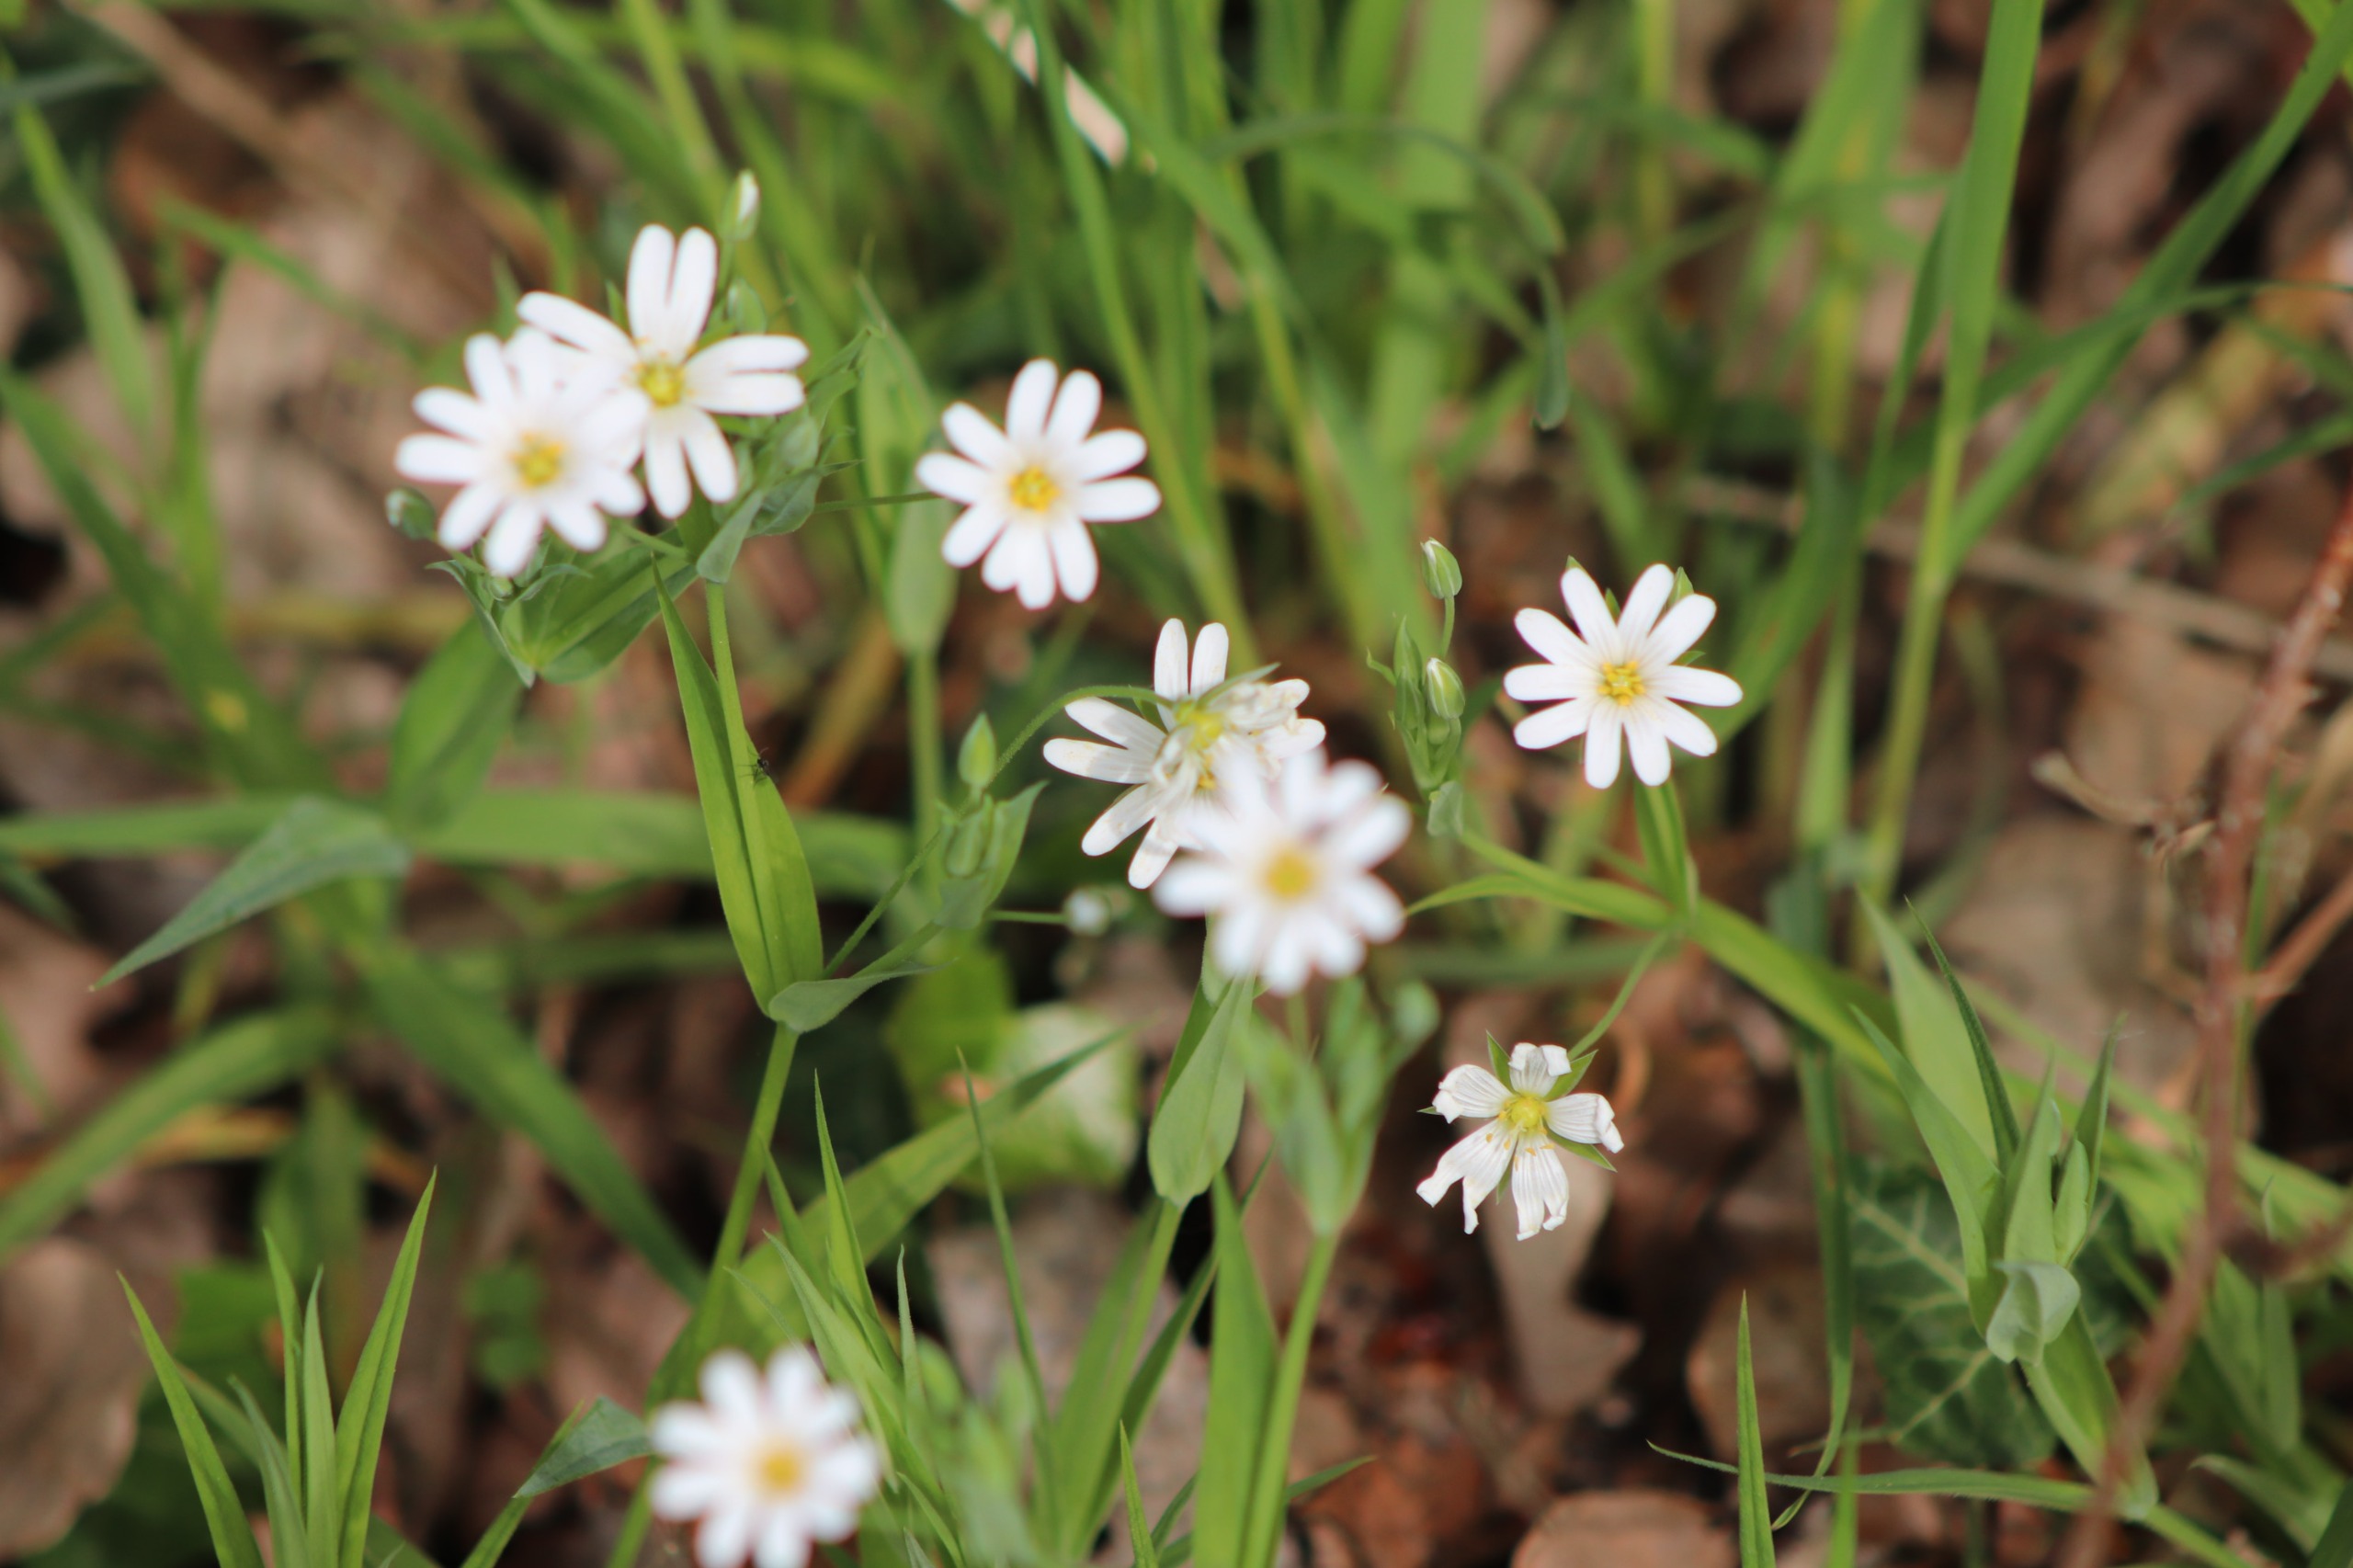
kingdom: Plantae
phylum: Tracheophyta
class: Magnoliopsida
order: Caryophyllales
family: Caryophyllaceae
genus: Rabelera
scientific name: Rabelera holostea
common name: Stor fladstjerne
